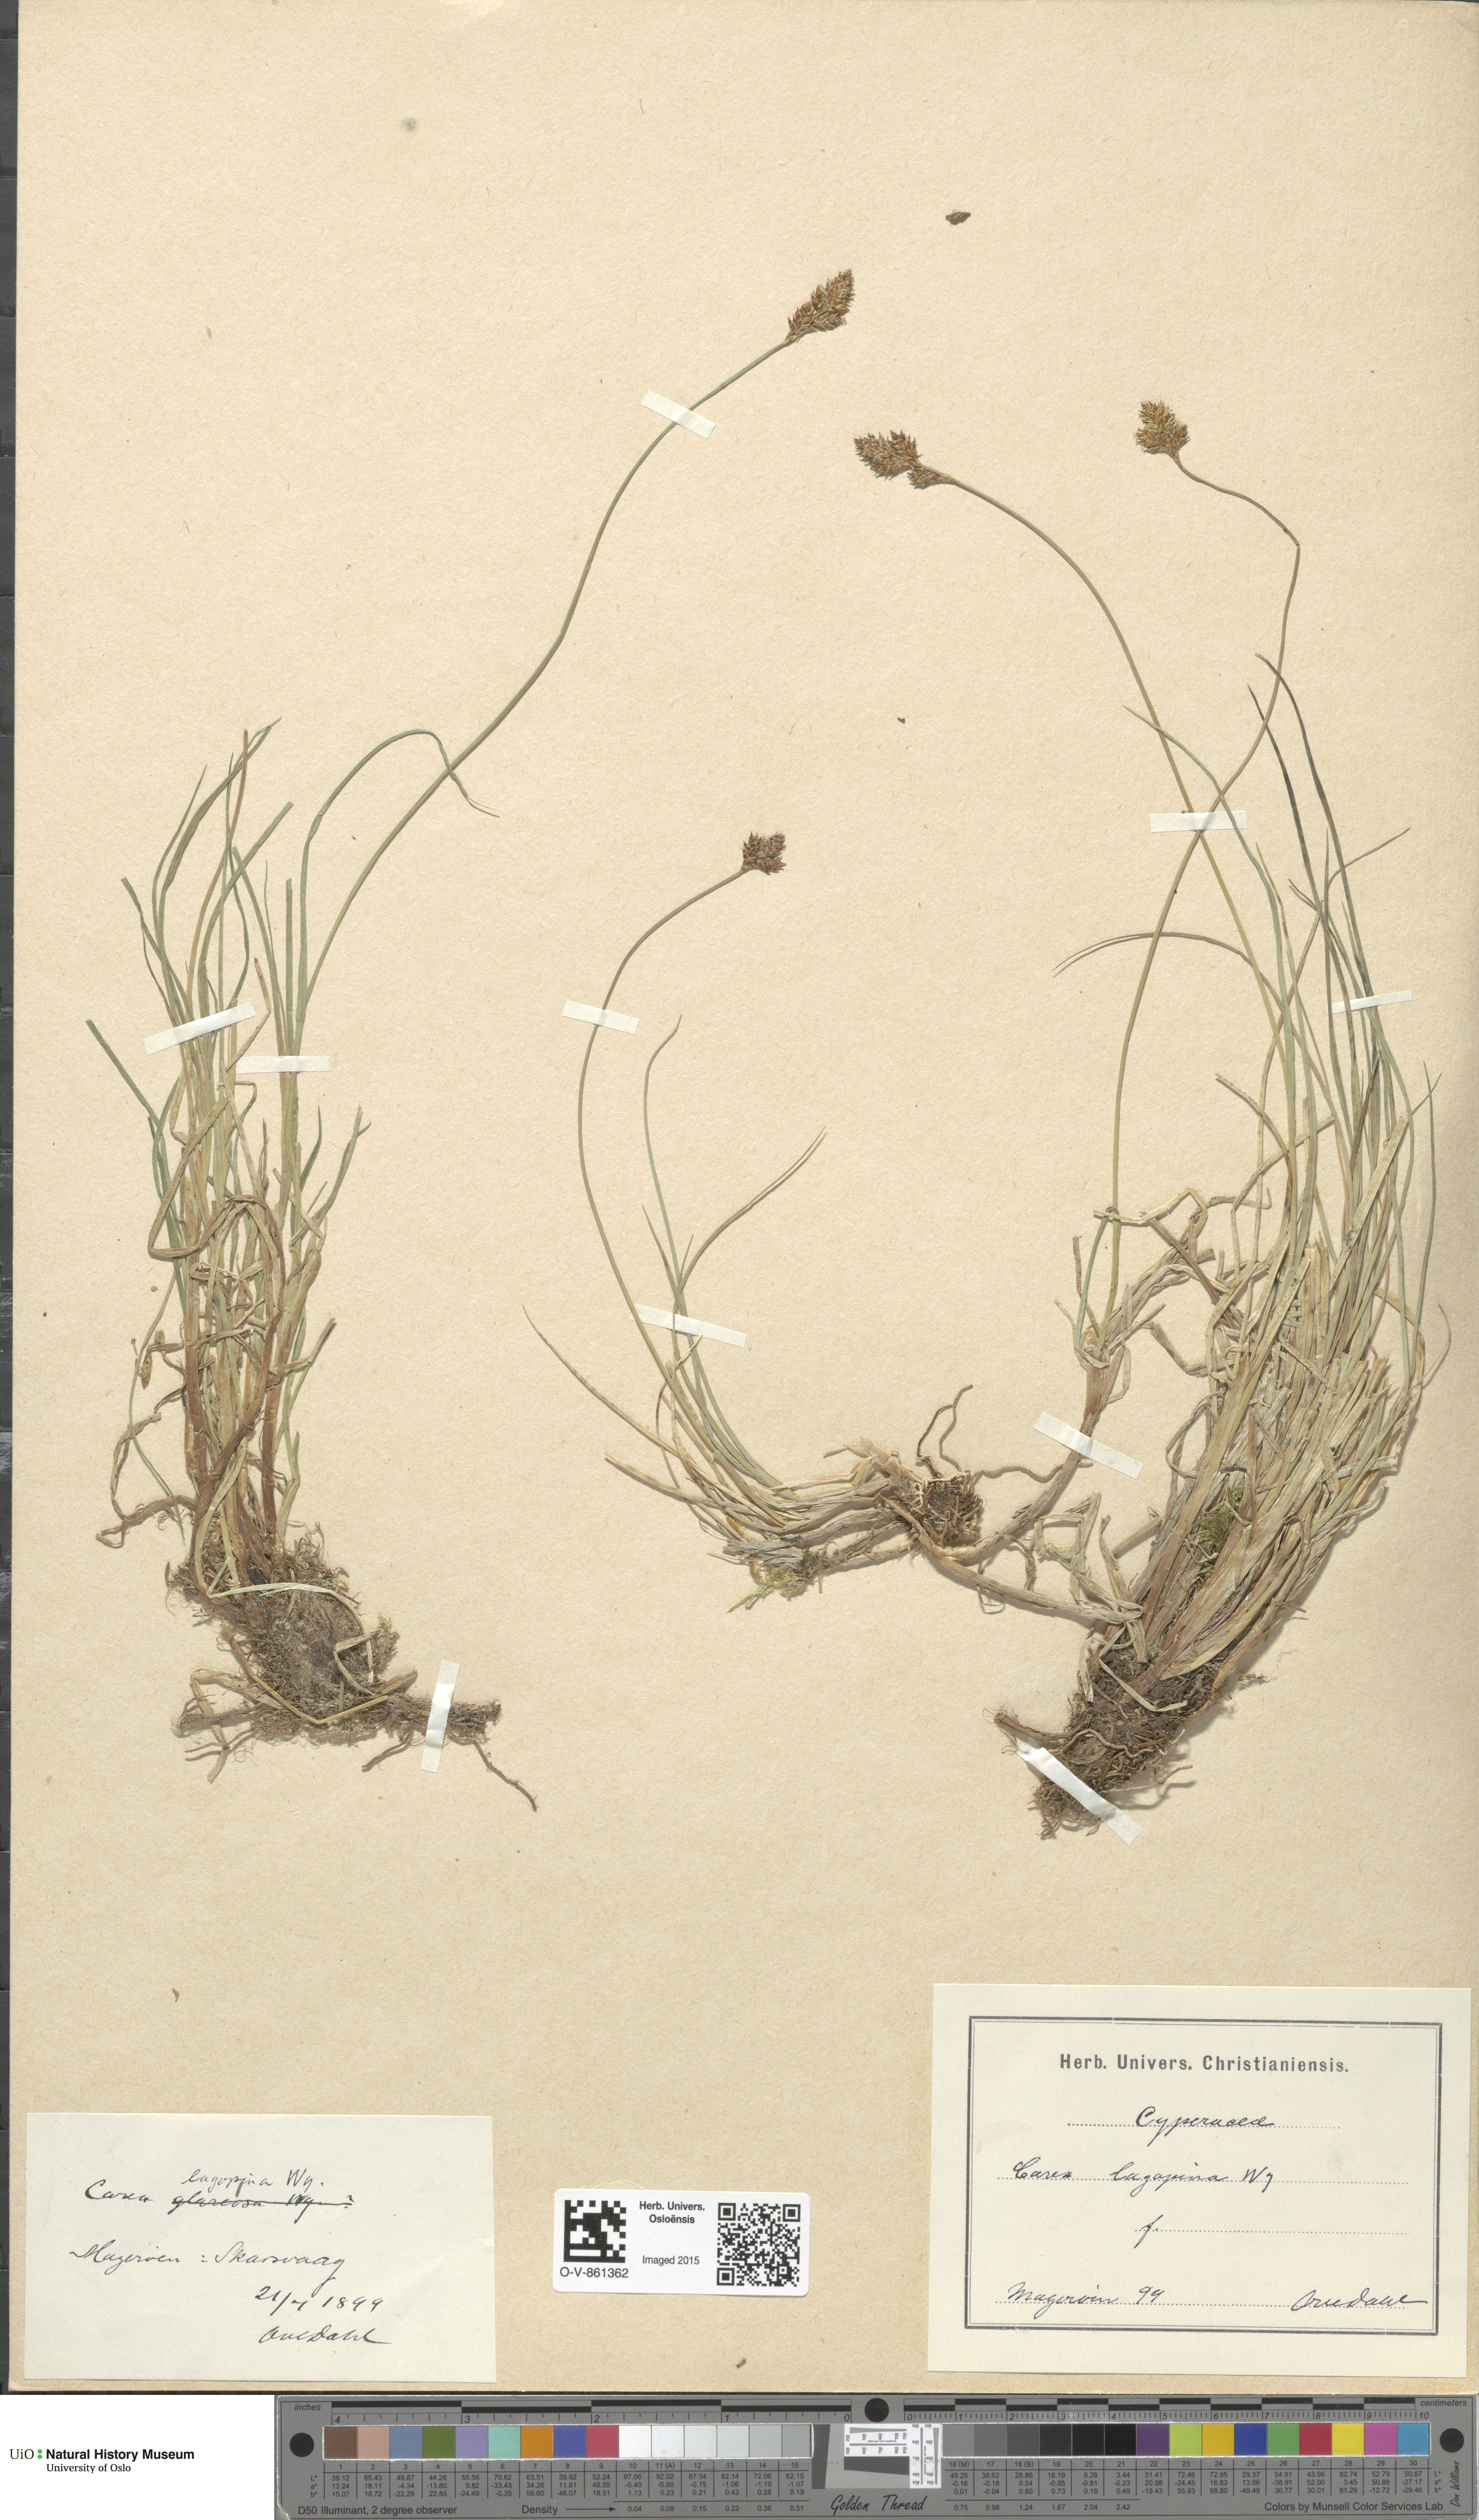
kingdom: Plantae
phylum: Tracheophyta
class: Liliopsida
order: Poales
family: Cyperaceae
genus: Carex
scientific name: Carex lachenalii
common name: Hare's-foot sedge
